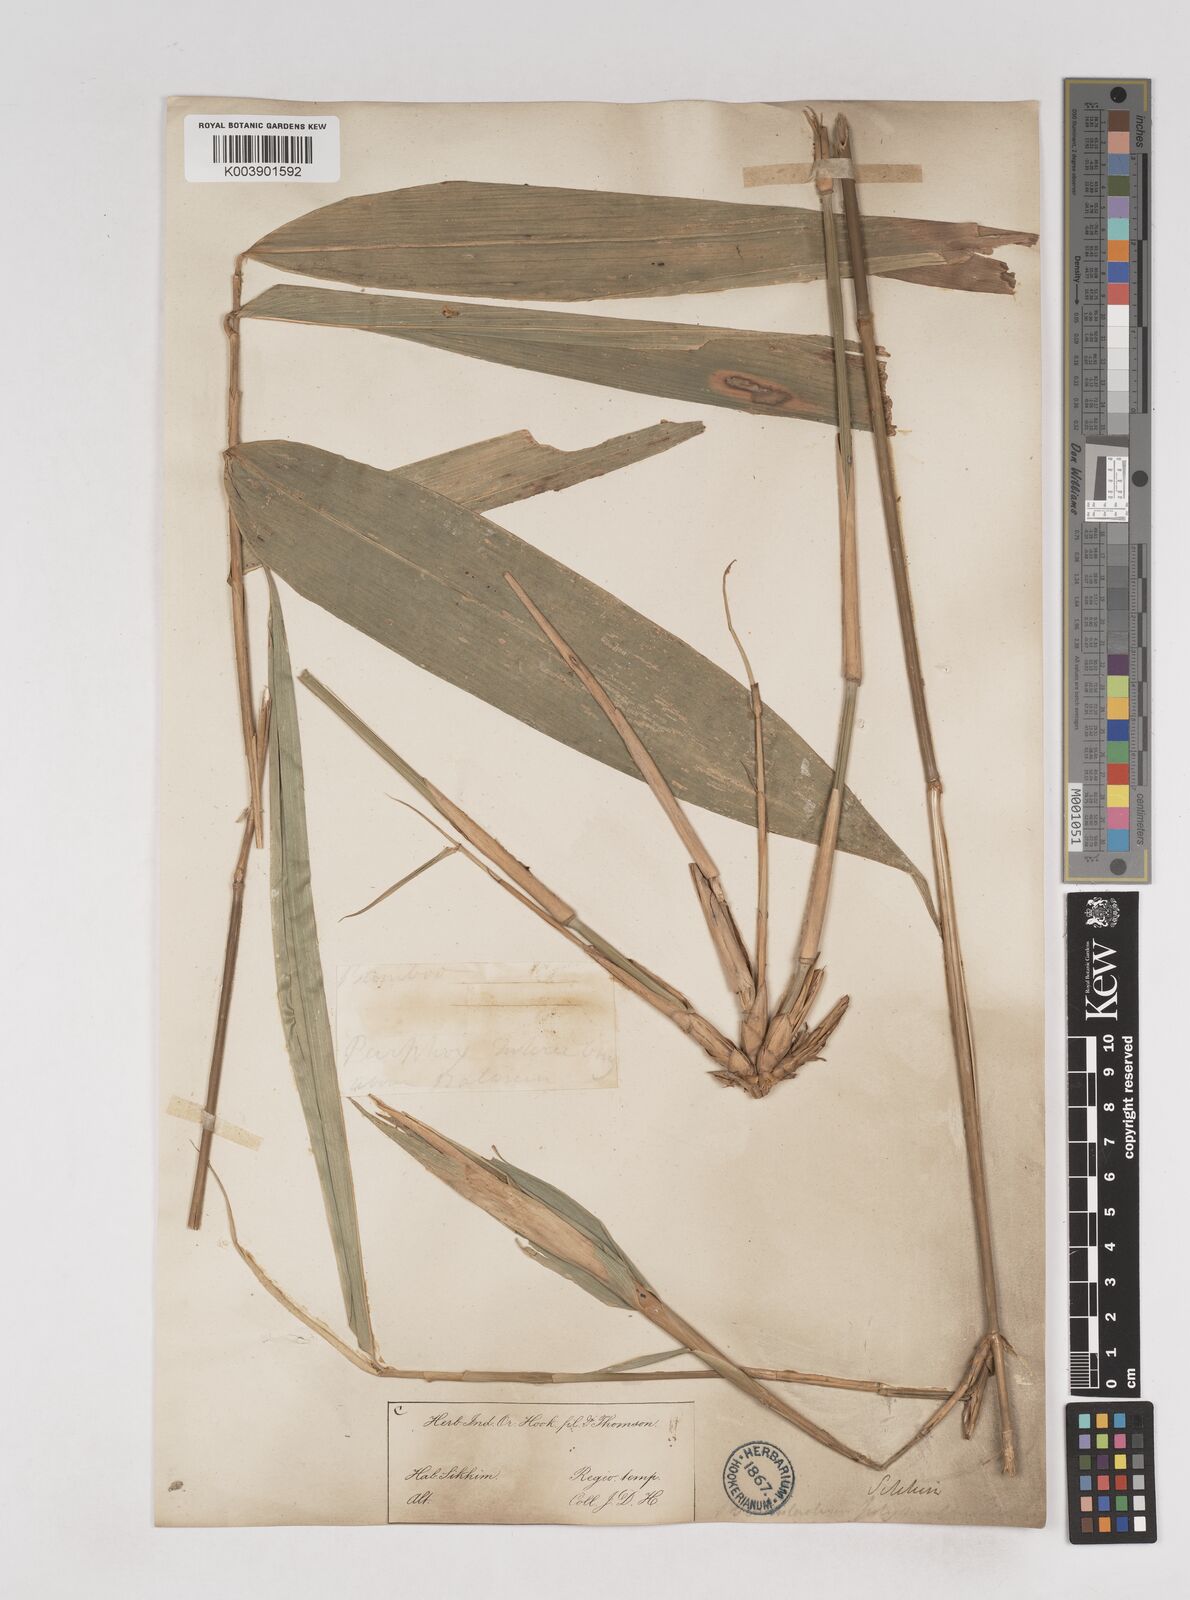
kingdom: Plantae
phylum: Tracheophyta
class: Liliopsida
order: Poales
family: Poaceae
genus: Pseudostachyum
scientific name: Pseudostachyum polymorphum
